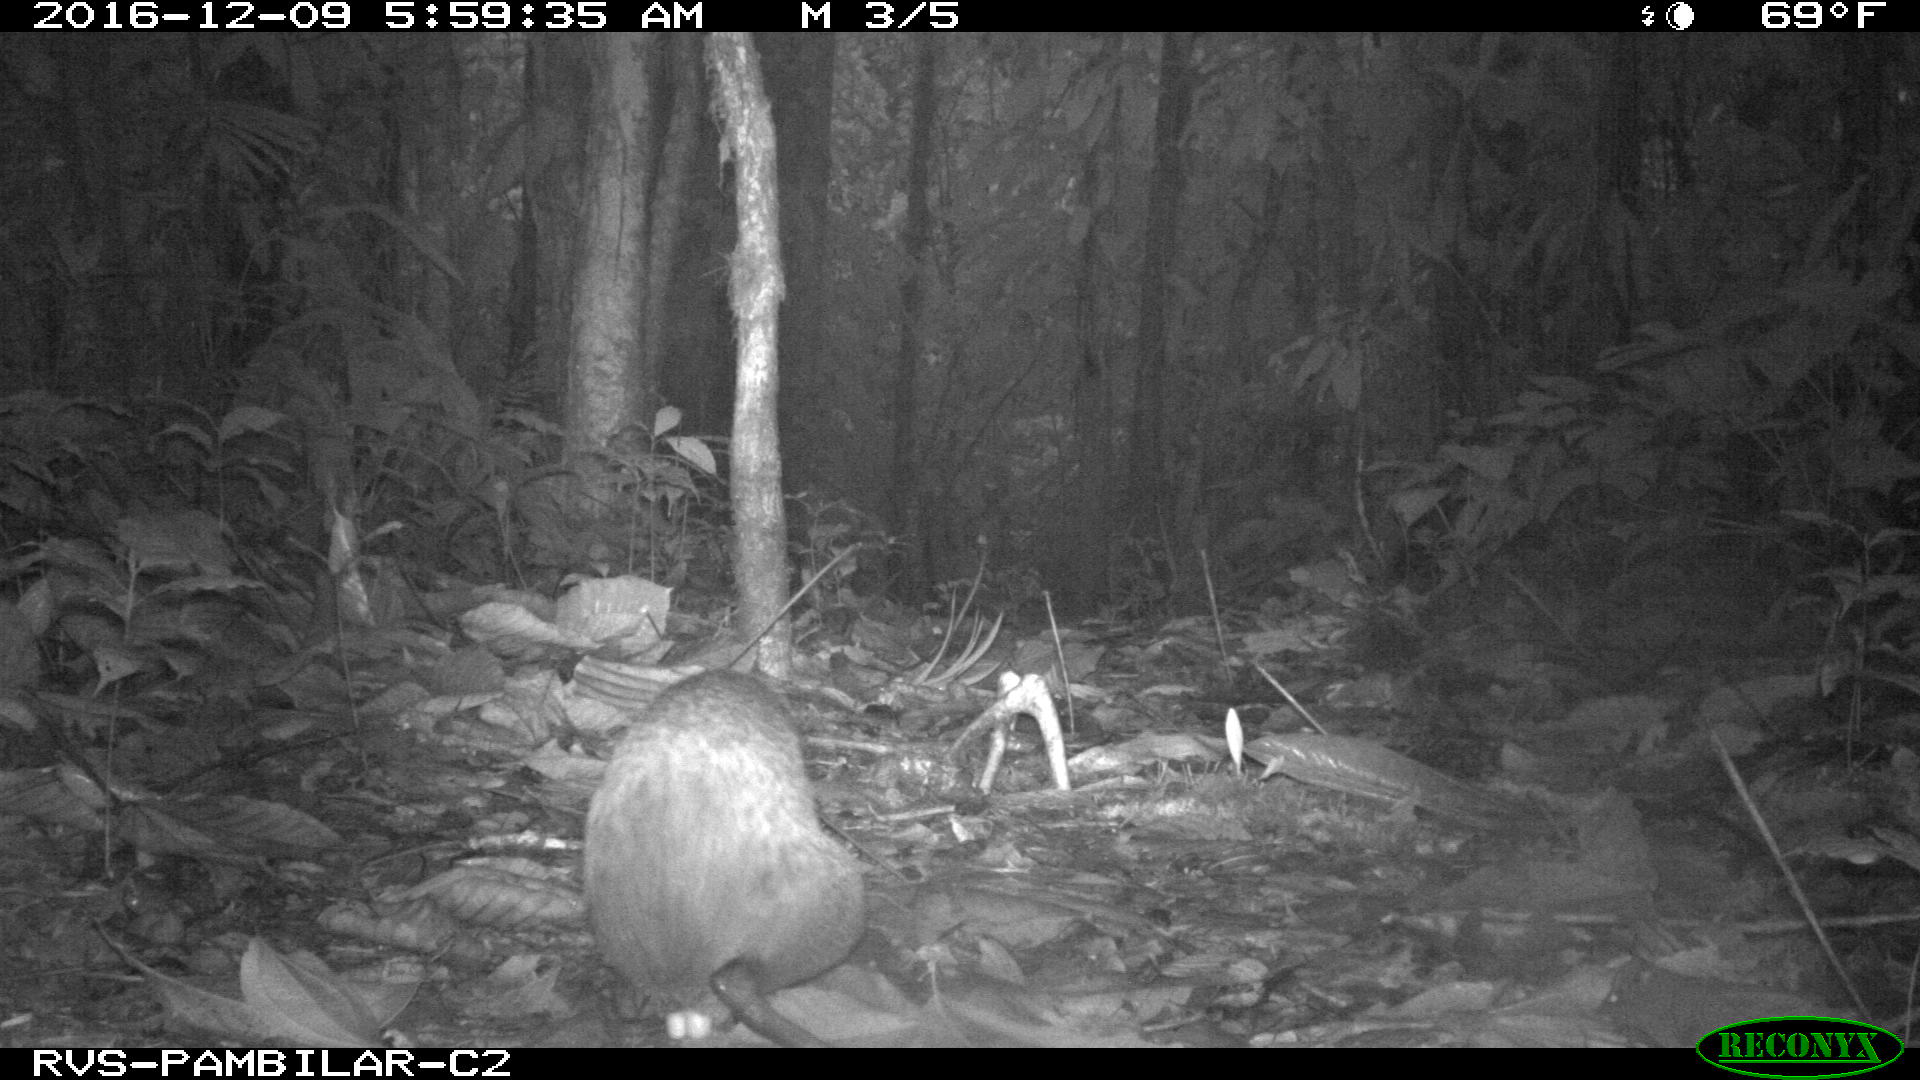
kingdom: Animalia
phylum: Chordata
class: Mammalia
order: Rodentia
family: Dasyproctidae
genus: Dasyprocta
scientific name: Dasyprocta punctata
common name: Central american agouti
